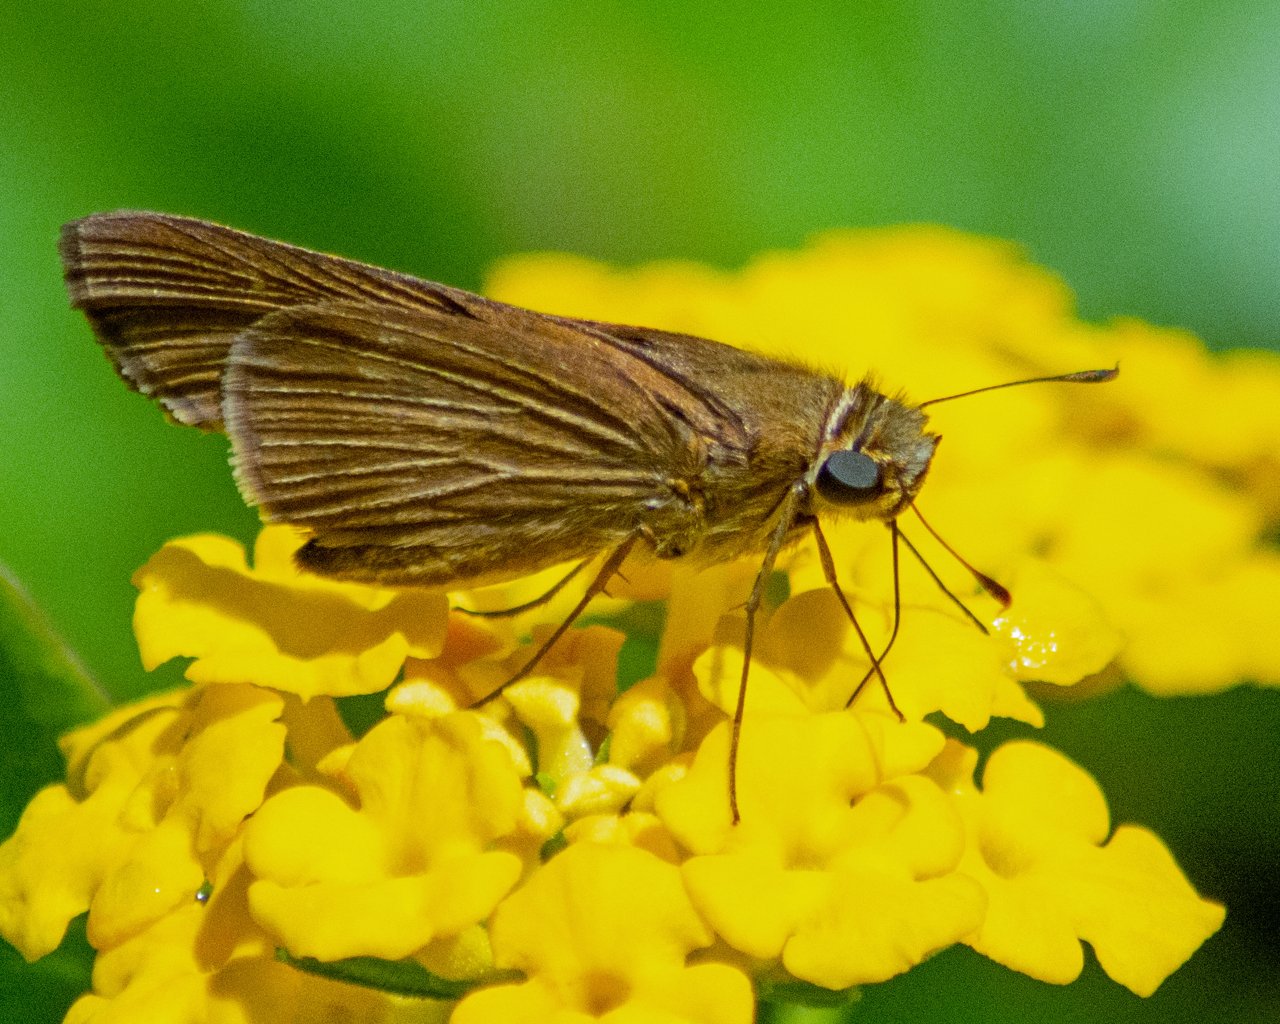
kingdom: Animalia
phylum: Arthropoda
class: Insecta
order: Lepidoptera
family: Hesperiidae
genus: Panoquina
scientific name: Panoquina ocola
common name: Ocola Skipper
